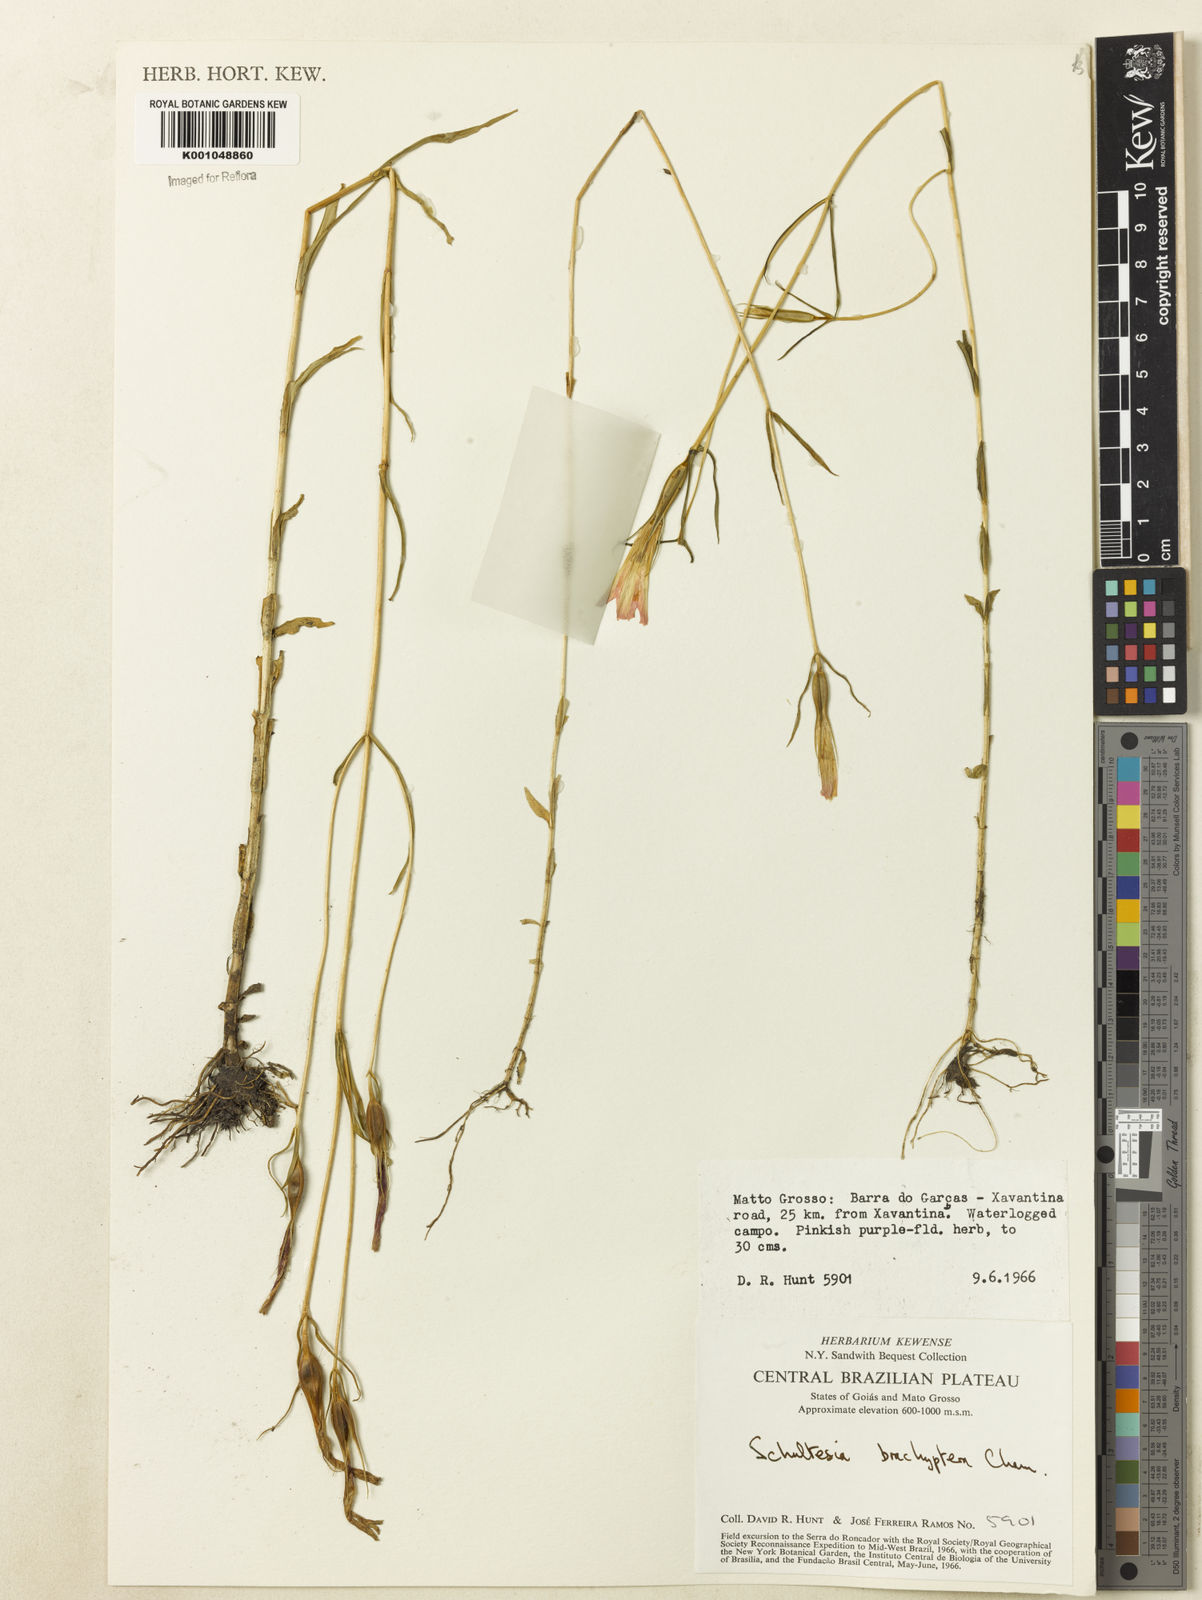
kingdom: Plantae
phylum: Tracheophyta
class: Magnoliopsida
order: Gentianales
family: Gentianaceae
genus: Schultesia
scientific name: Schultesia brachyptera
